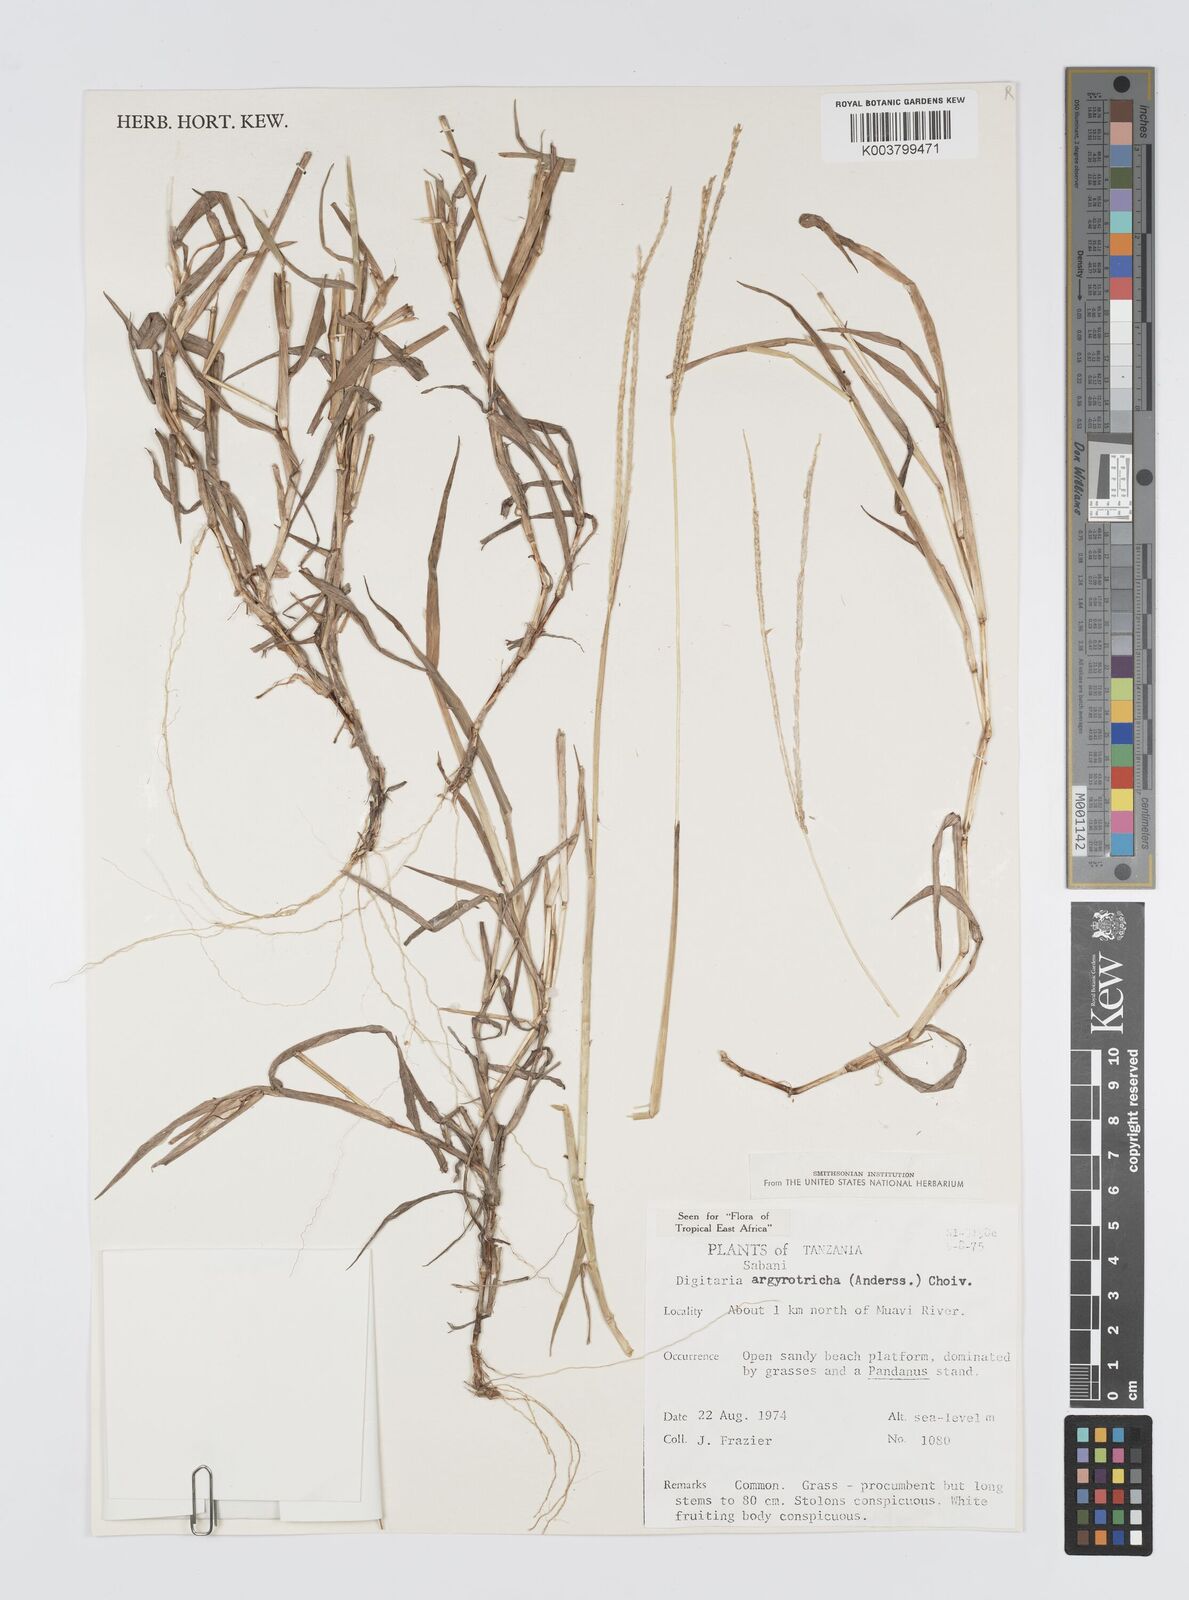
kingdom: Plantae
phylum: Tracheophyta
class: Liliopsida
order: Poales
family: Poaceae
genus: Digitaria
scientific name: Digitaria argyrotricha
